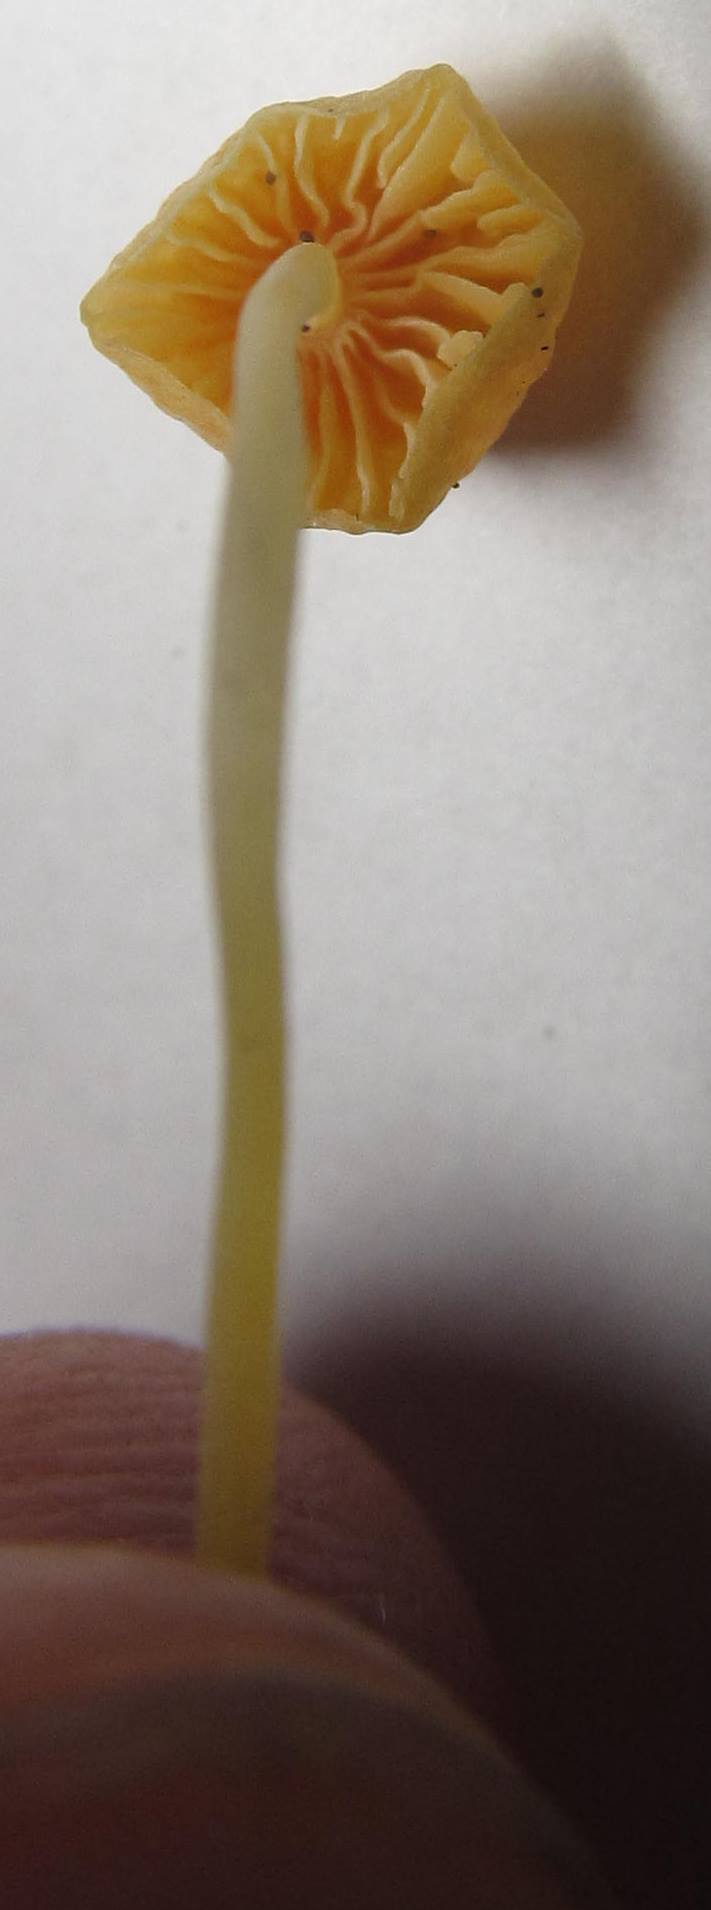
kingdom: Fungi
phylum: Basidiomycota
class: Agaricomycetes
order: Agaricales
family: Mycenaceae
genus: Mycena
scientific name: Mycena acicula
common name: orange huesvamp
